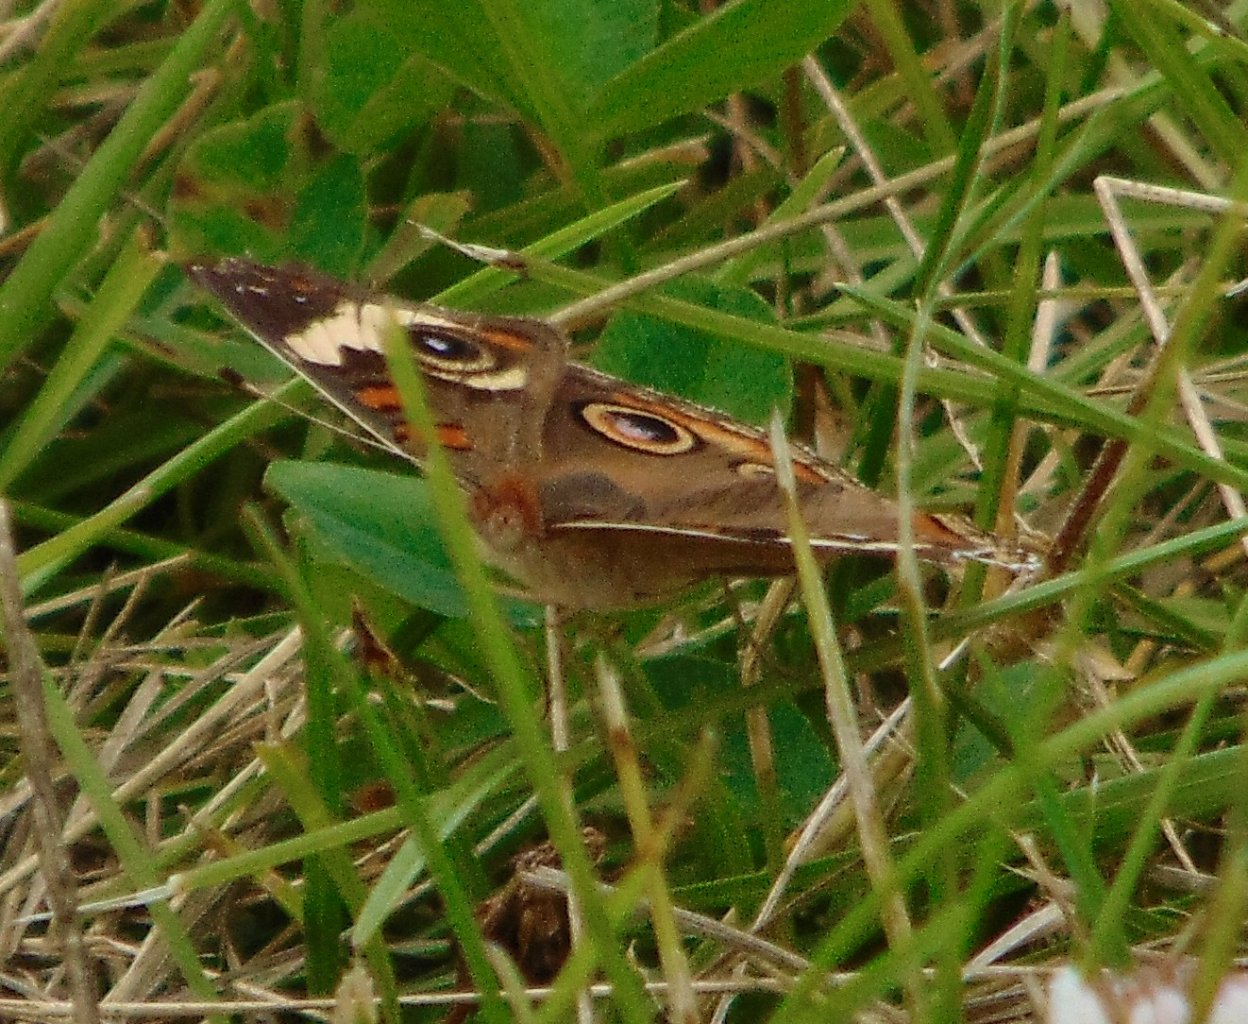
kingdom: Animalia
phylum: Arthropoda
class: Insecta
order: Lepidoptera
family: Nymphalidae
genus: Junonia
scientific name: Junonia coenia
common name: Common Buckeye
